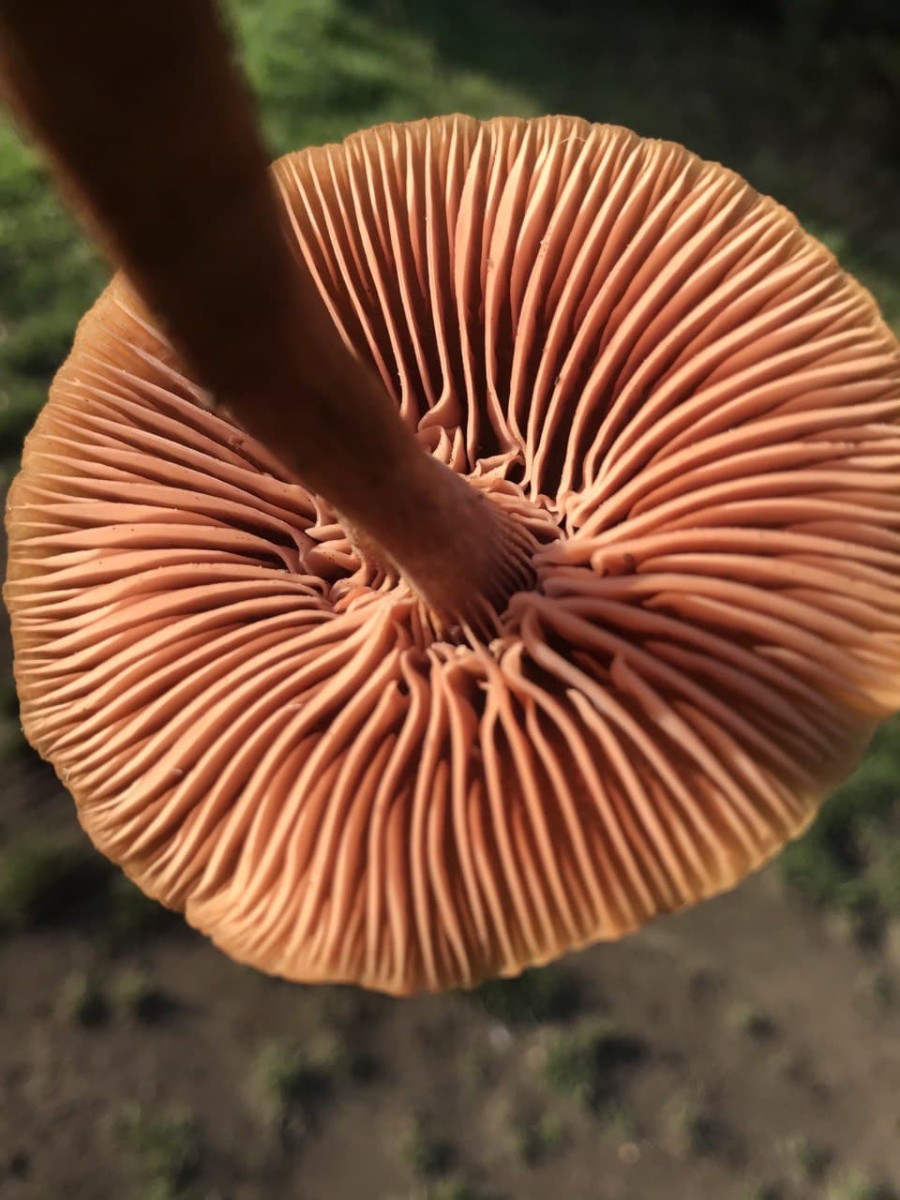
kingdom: Fungi
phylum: Basidiomycota
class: Agaricomycetes
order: Agaricales
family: Hydnangiaceae
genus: Laccaria
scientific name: Laccaria proxima
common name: stor ametysthat
